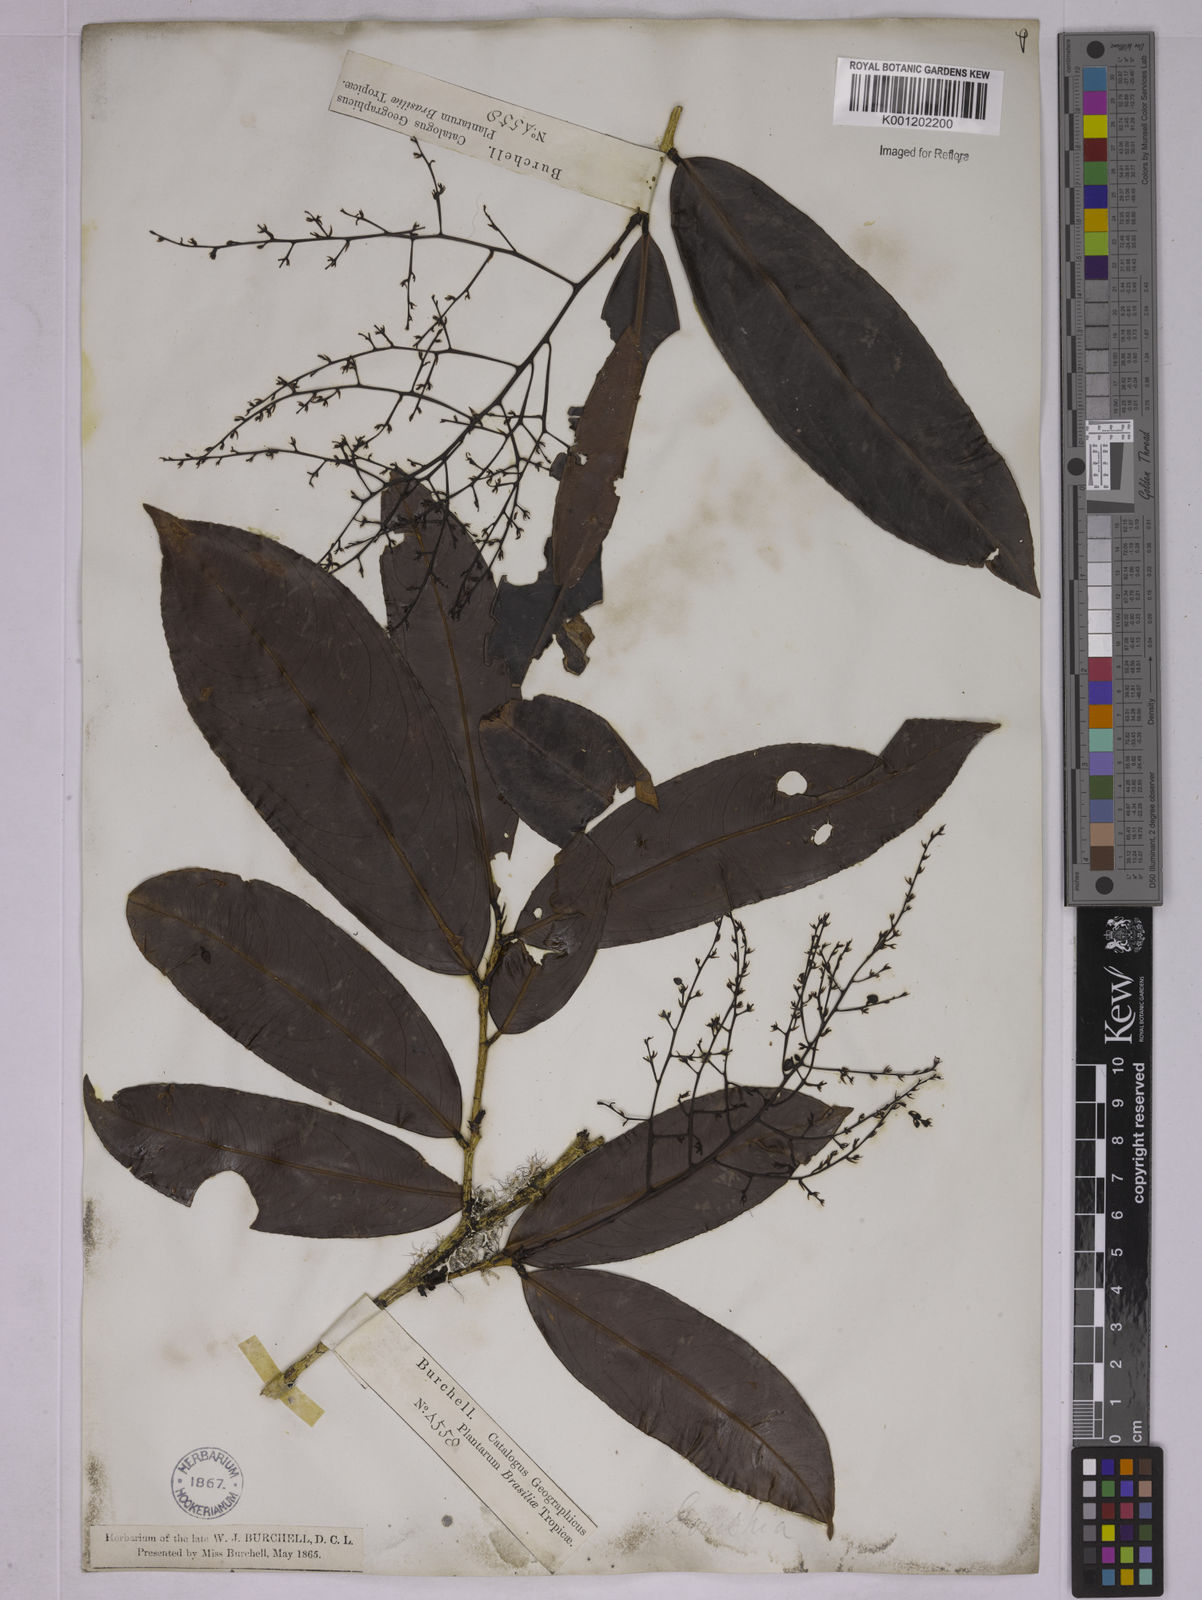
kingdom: Plantae
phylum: Tracheophyta
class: Magnoliopsida
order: Malpighiales
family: Ochnaceae
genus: Ouratea
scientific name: Ouratea
